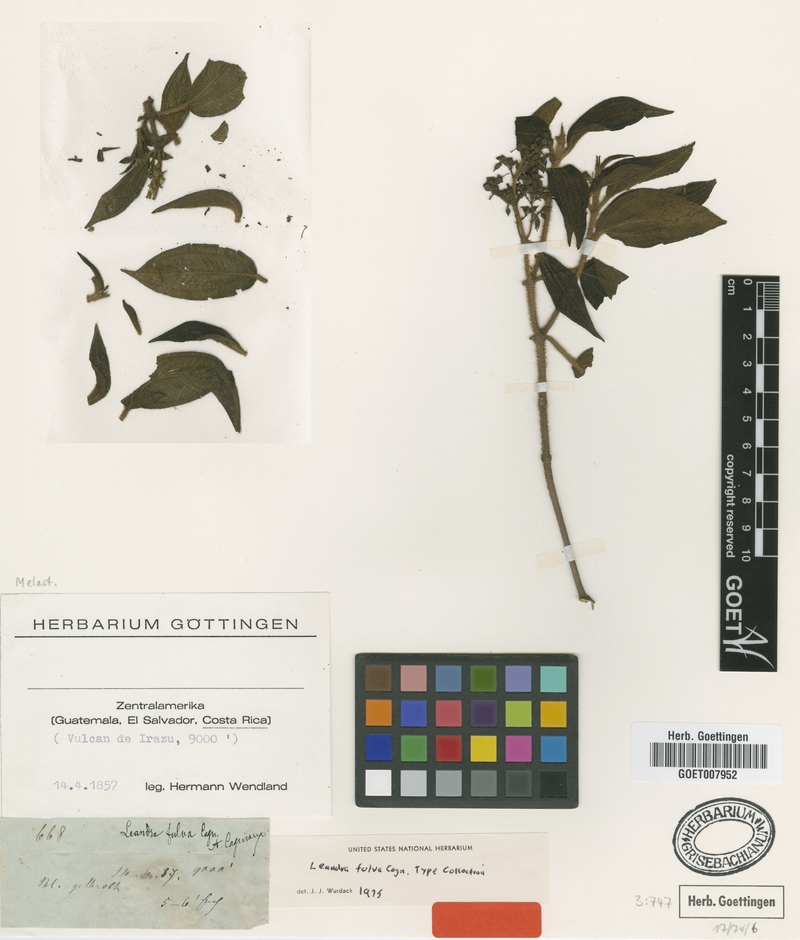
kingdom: Plantae
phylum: Tracheophyta
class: Magnoliopsida
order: Myrtales
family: Melastomataceae
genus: Miconia
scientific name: Miconia melanodesma
